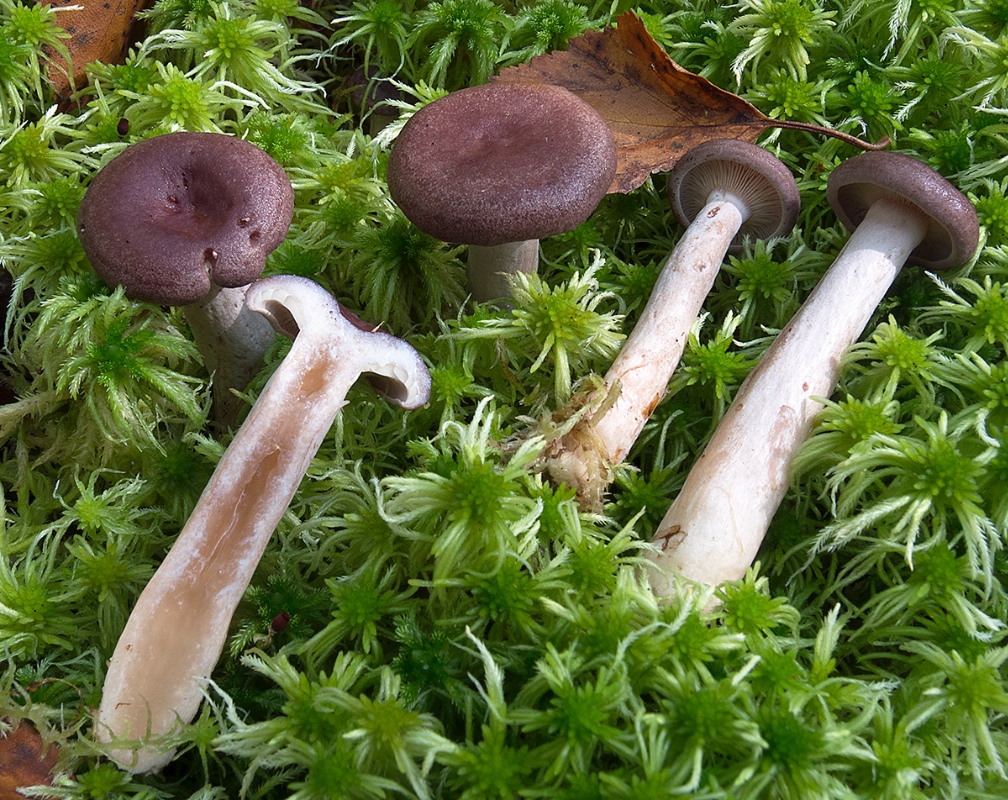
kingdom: Fungi
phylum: Basidiomycota
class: Agaricomycetes
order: Russulales
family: Russulaceae
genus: Lactarius
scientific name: Lactarius pilatii
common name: puklet mælkehat
